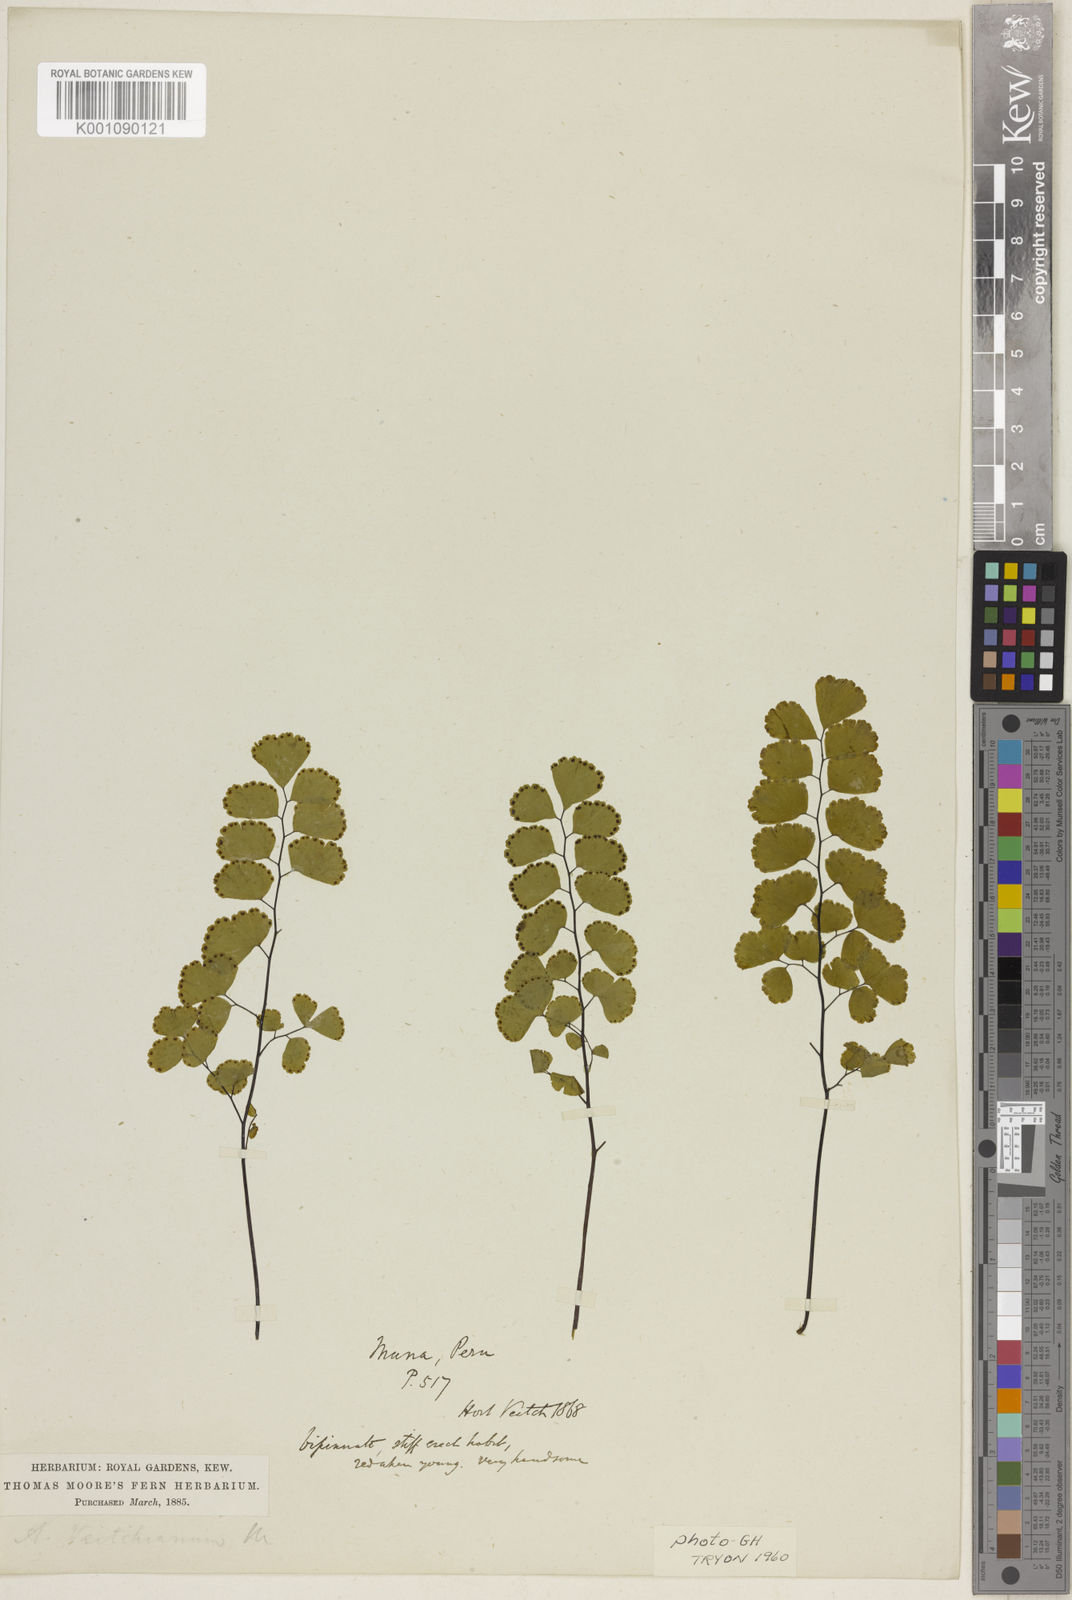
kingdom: Plantae
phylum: Tracheophyta
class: Polypodiopsida
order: Polypodiales
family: Pteridaceae
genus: Adiantum
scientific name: Adiantum ruizianum
